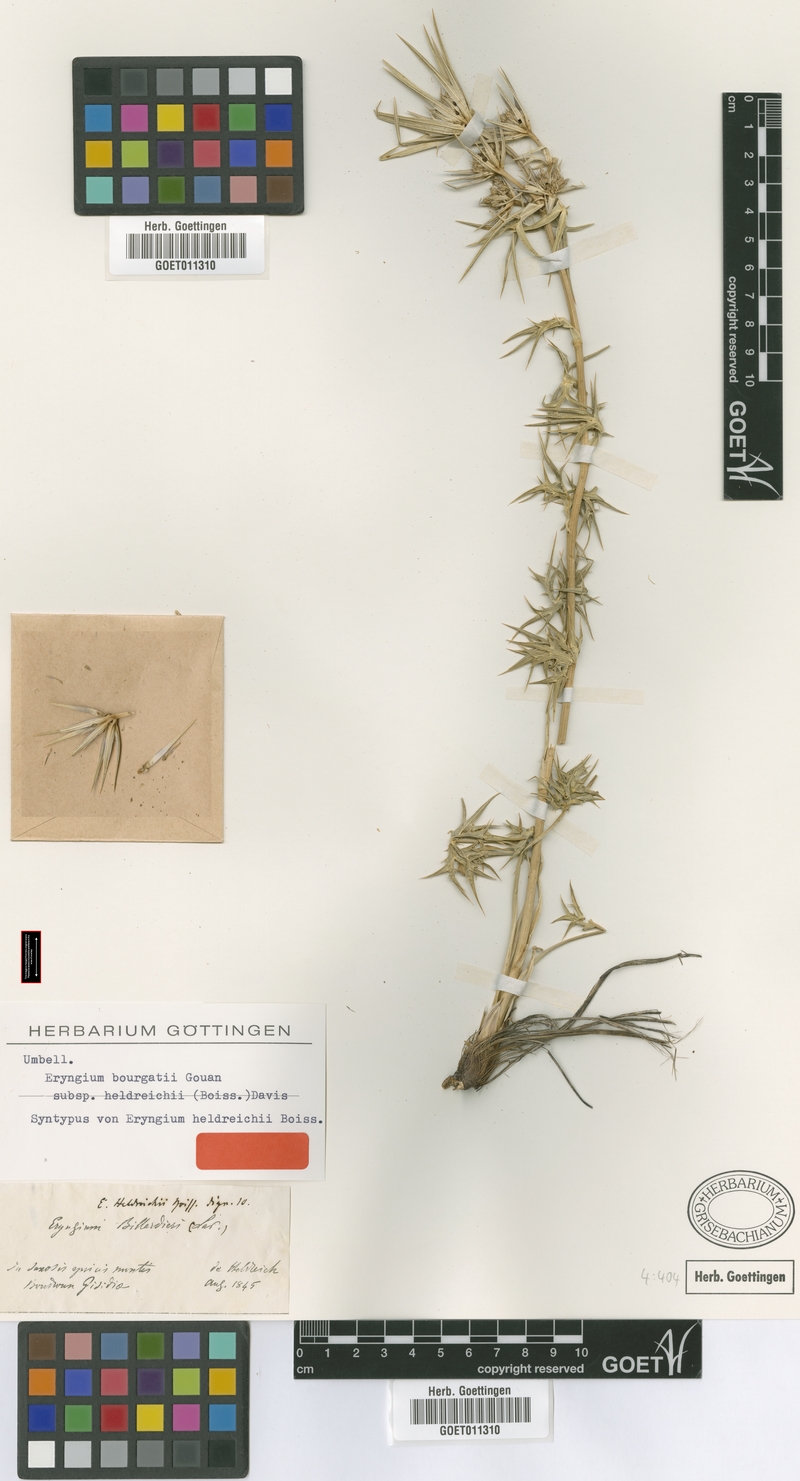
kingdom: Plantae
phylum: Tracheophyta
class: Magnoliopsida
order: Apiales
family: Apiaceae
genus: Eryngium
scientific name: Eryngium heldreichii
